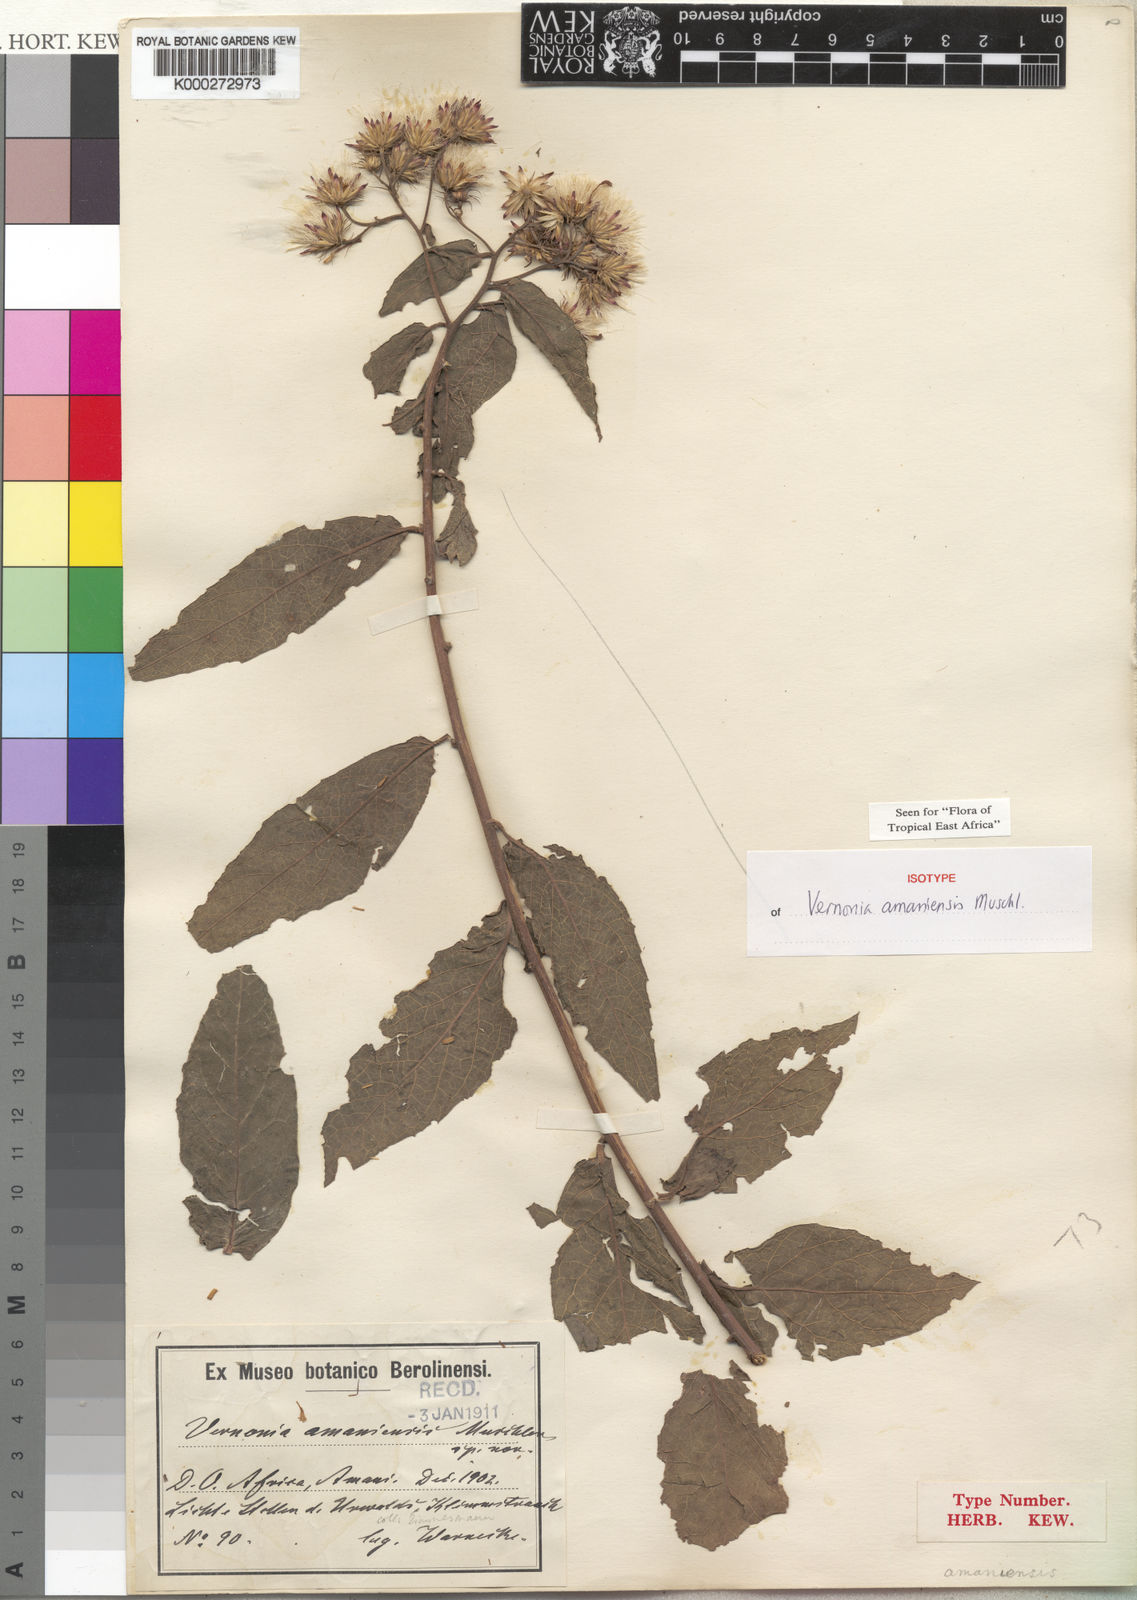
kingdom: Plantae
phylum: Tracheophyta
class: Magnoliopsida
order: Asterales
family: Asteraceae
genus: Jeffreycia
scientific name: Jeffreycia amaniensis
